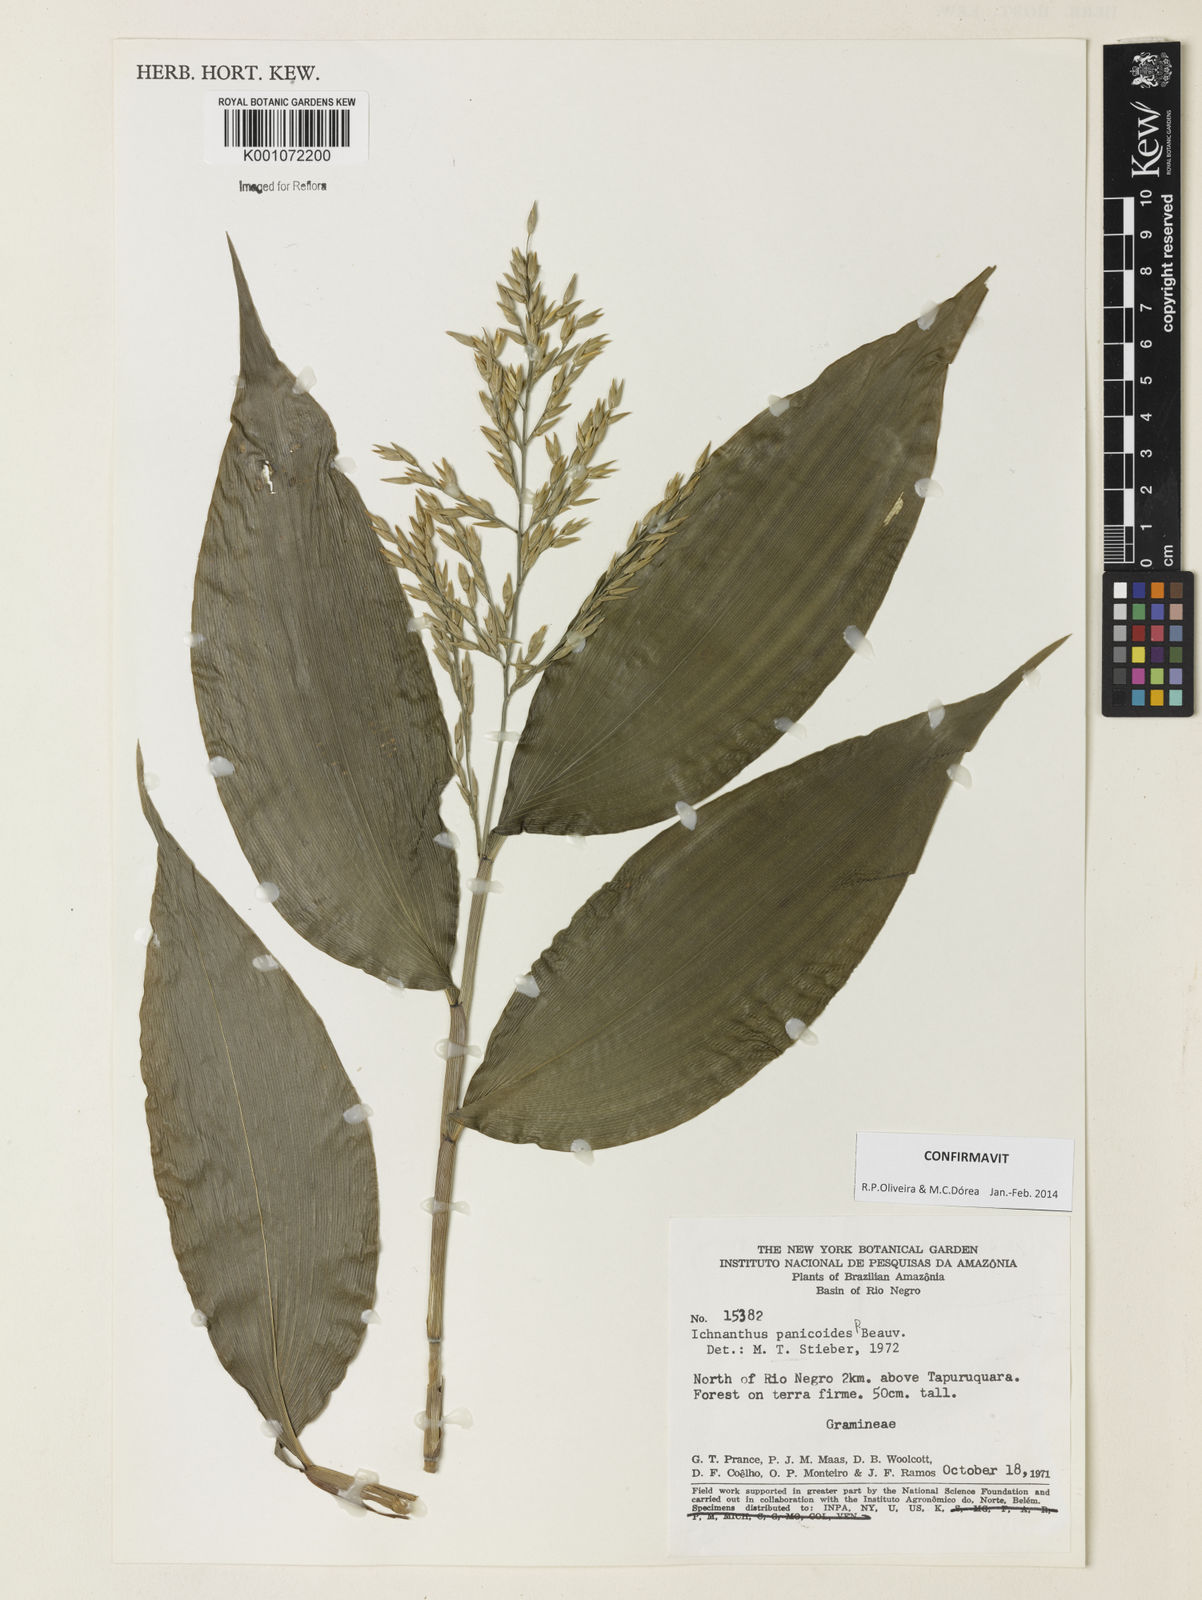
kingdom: Plantae
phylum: Tracheophyta
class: Liliopsida
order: Poales
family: Poaceae
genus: Ichnanthus
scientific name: Ichnanthus panicoides
